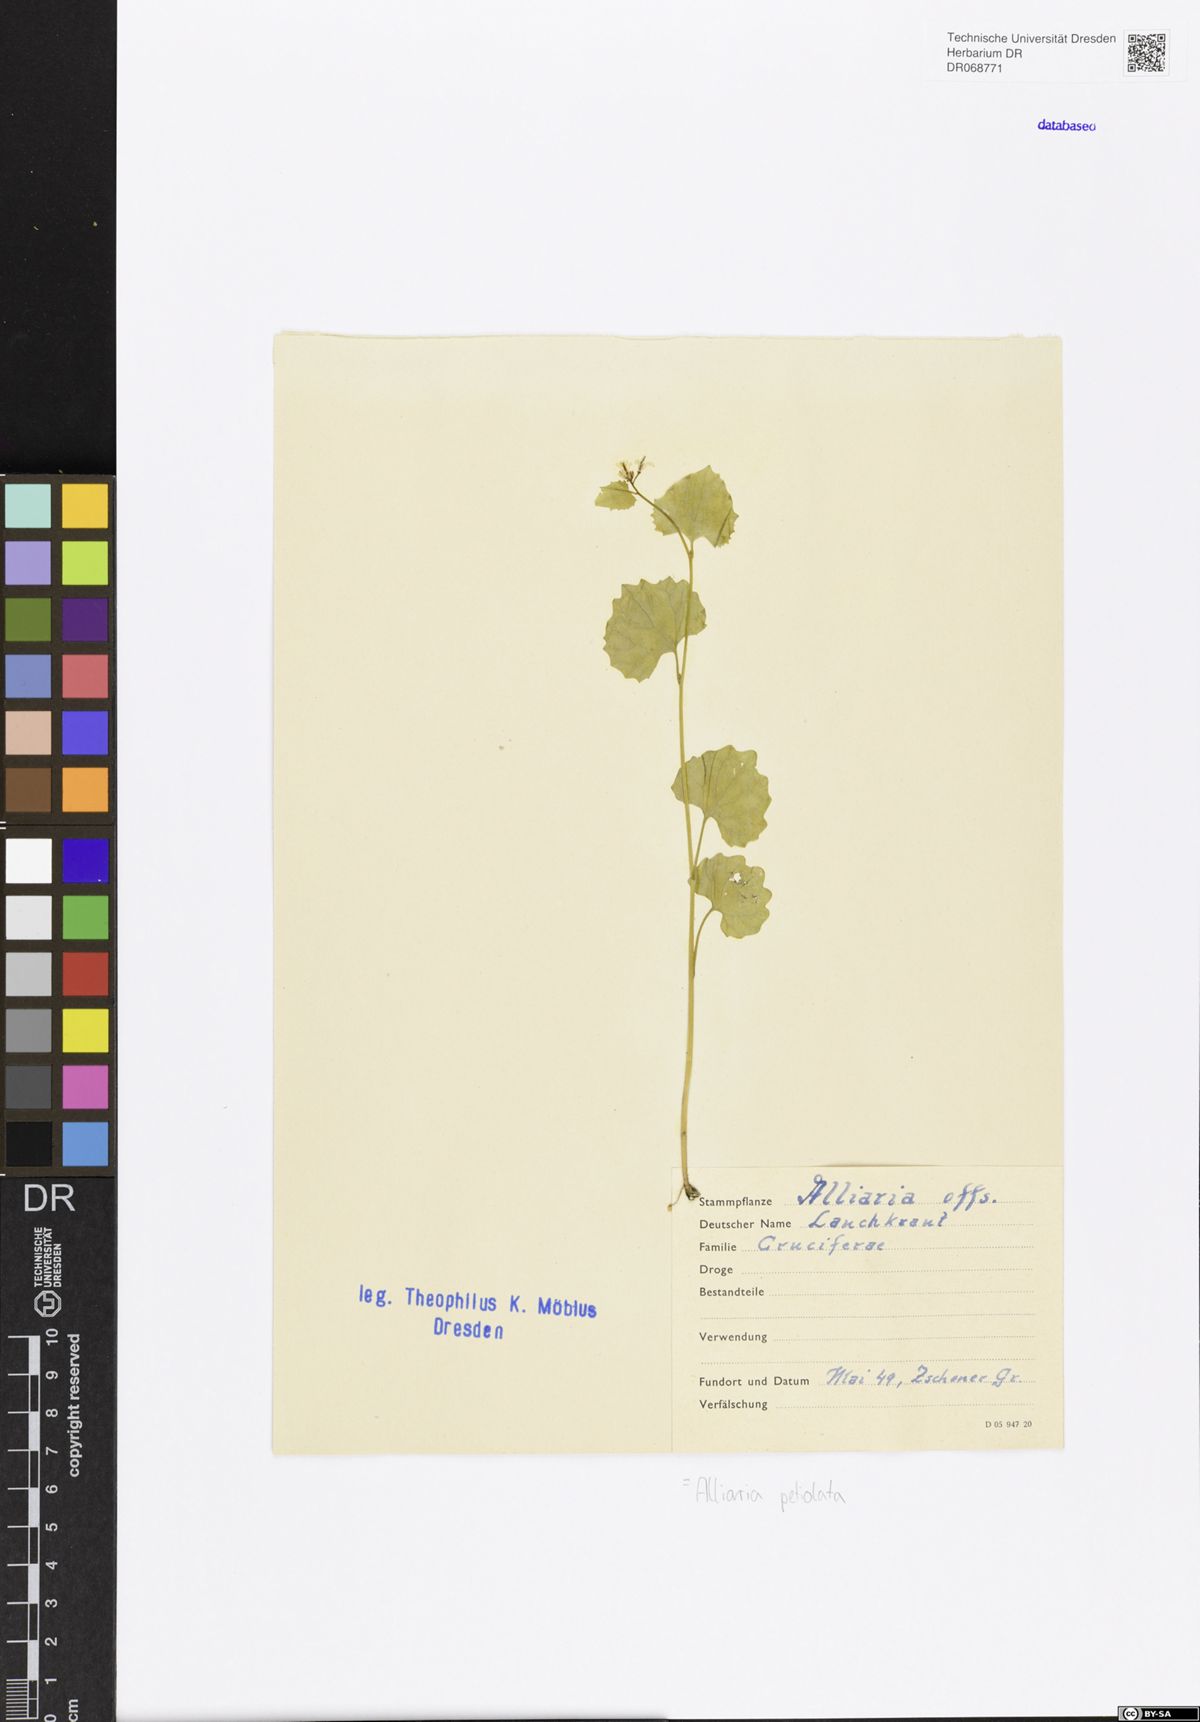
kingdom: Plantae
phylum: Tracheophyta
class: Magnoliopsida
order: Brassicales
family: Brassicaceae
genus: Alliaria
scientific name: Alliaria petiolata
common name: Garlic mustard
